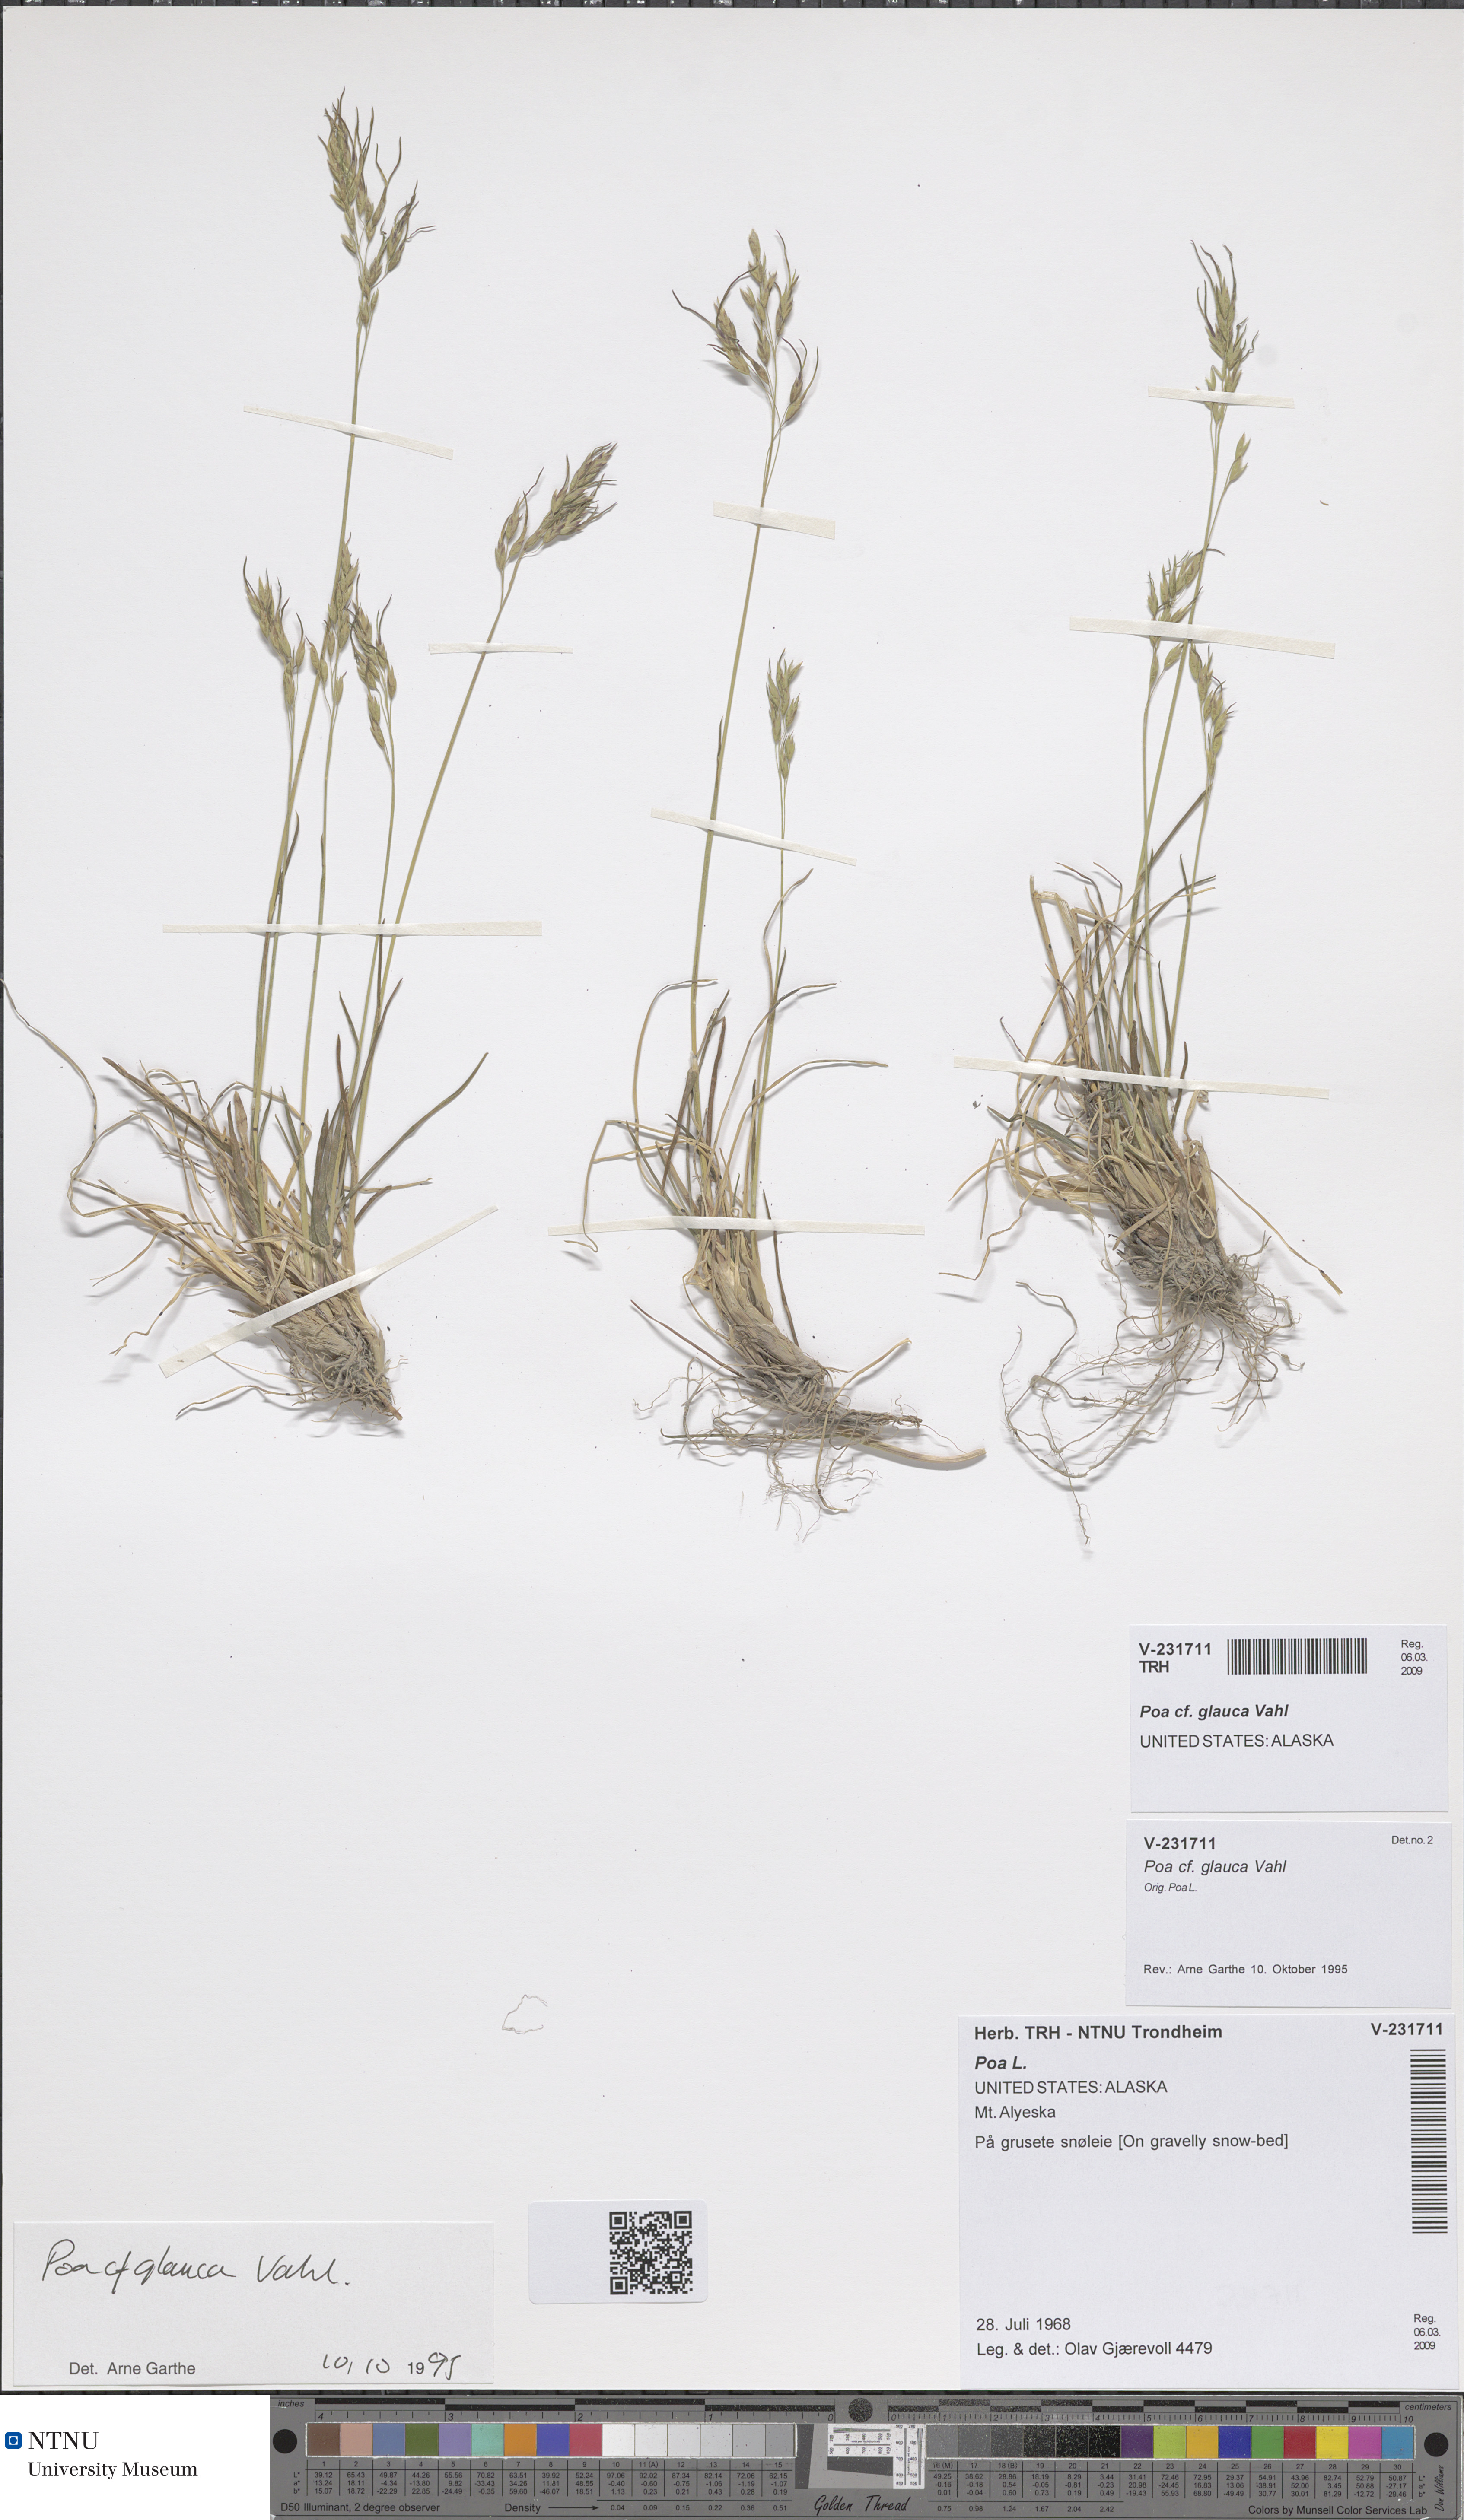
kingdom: Plantae
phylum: Tracheophyta
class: Liliopsida
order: Poales
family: Poaceae
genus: Poa
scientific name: Poa glauca
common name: Glaucous bluegrass
